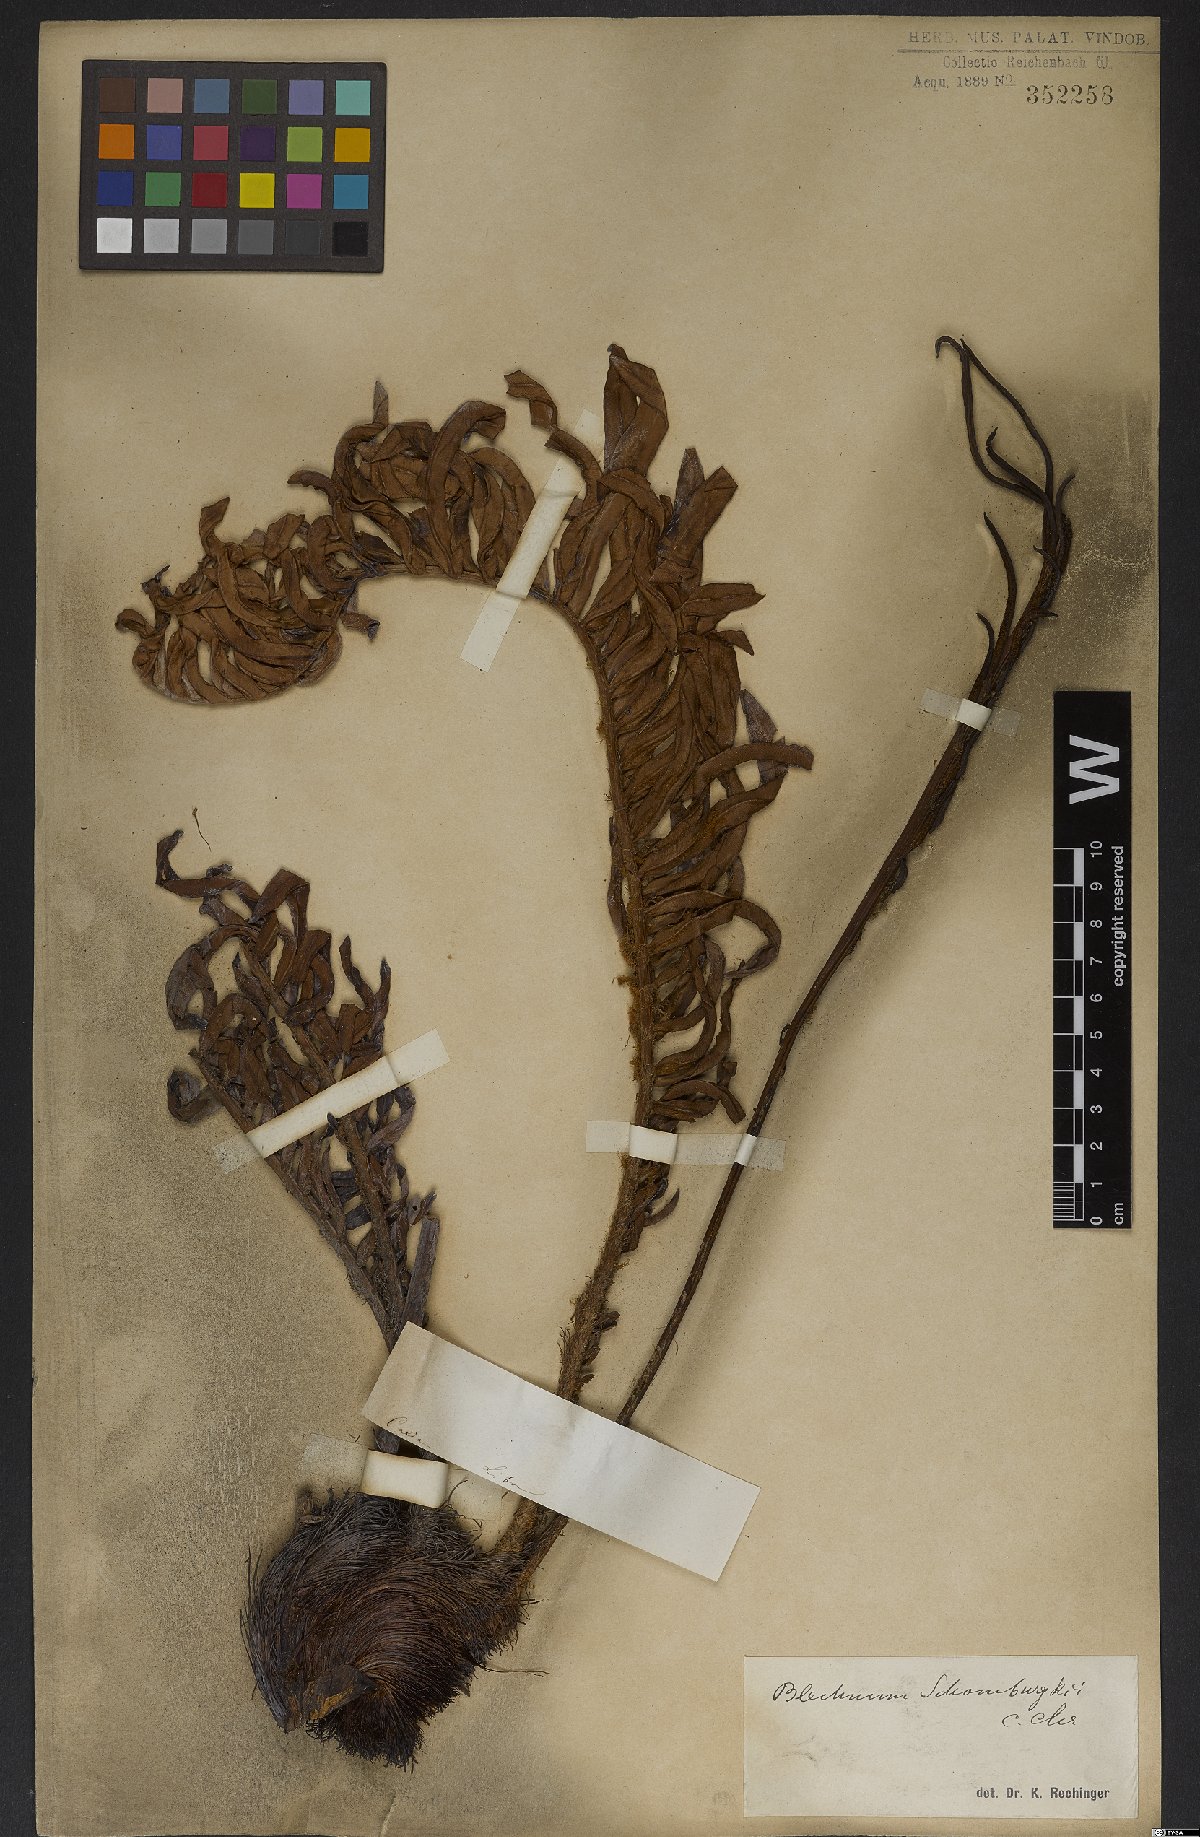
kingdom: Plantae
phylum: Tracheophyta
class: Polypodiopsida
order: Polypodiales
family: Blechnaceae
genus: Lomariocycas
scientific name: Lomariocycas schomburgkii
